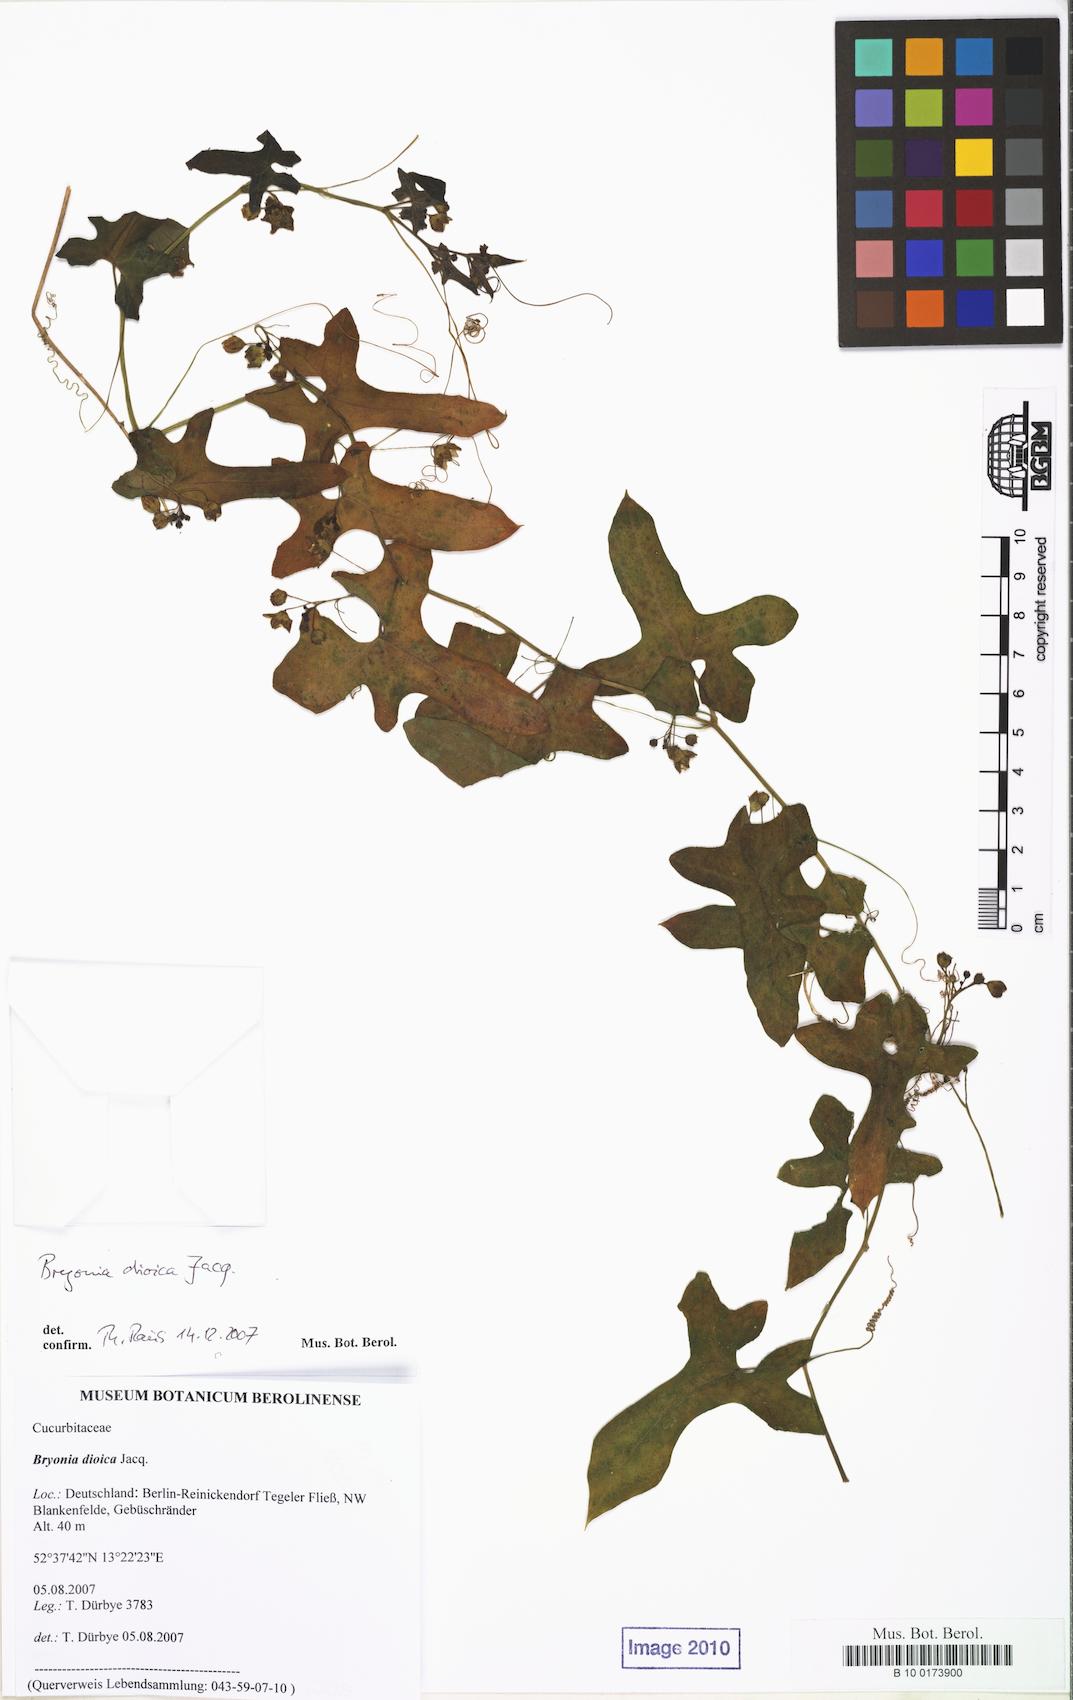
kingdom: Plantae
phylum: Tracheophyta
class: Magnoliopsida
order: Cucurbitales
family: Cucurbitaceae
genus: Bryonia
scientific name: Bryonia dioica
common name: White bryony
